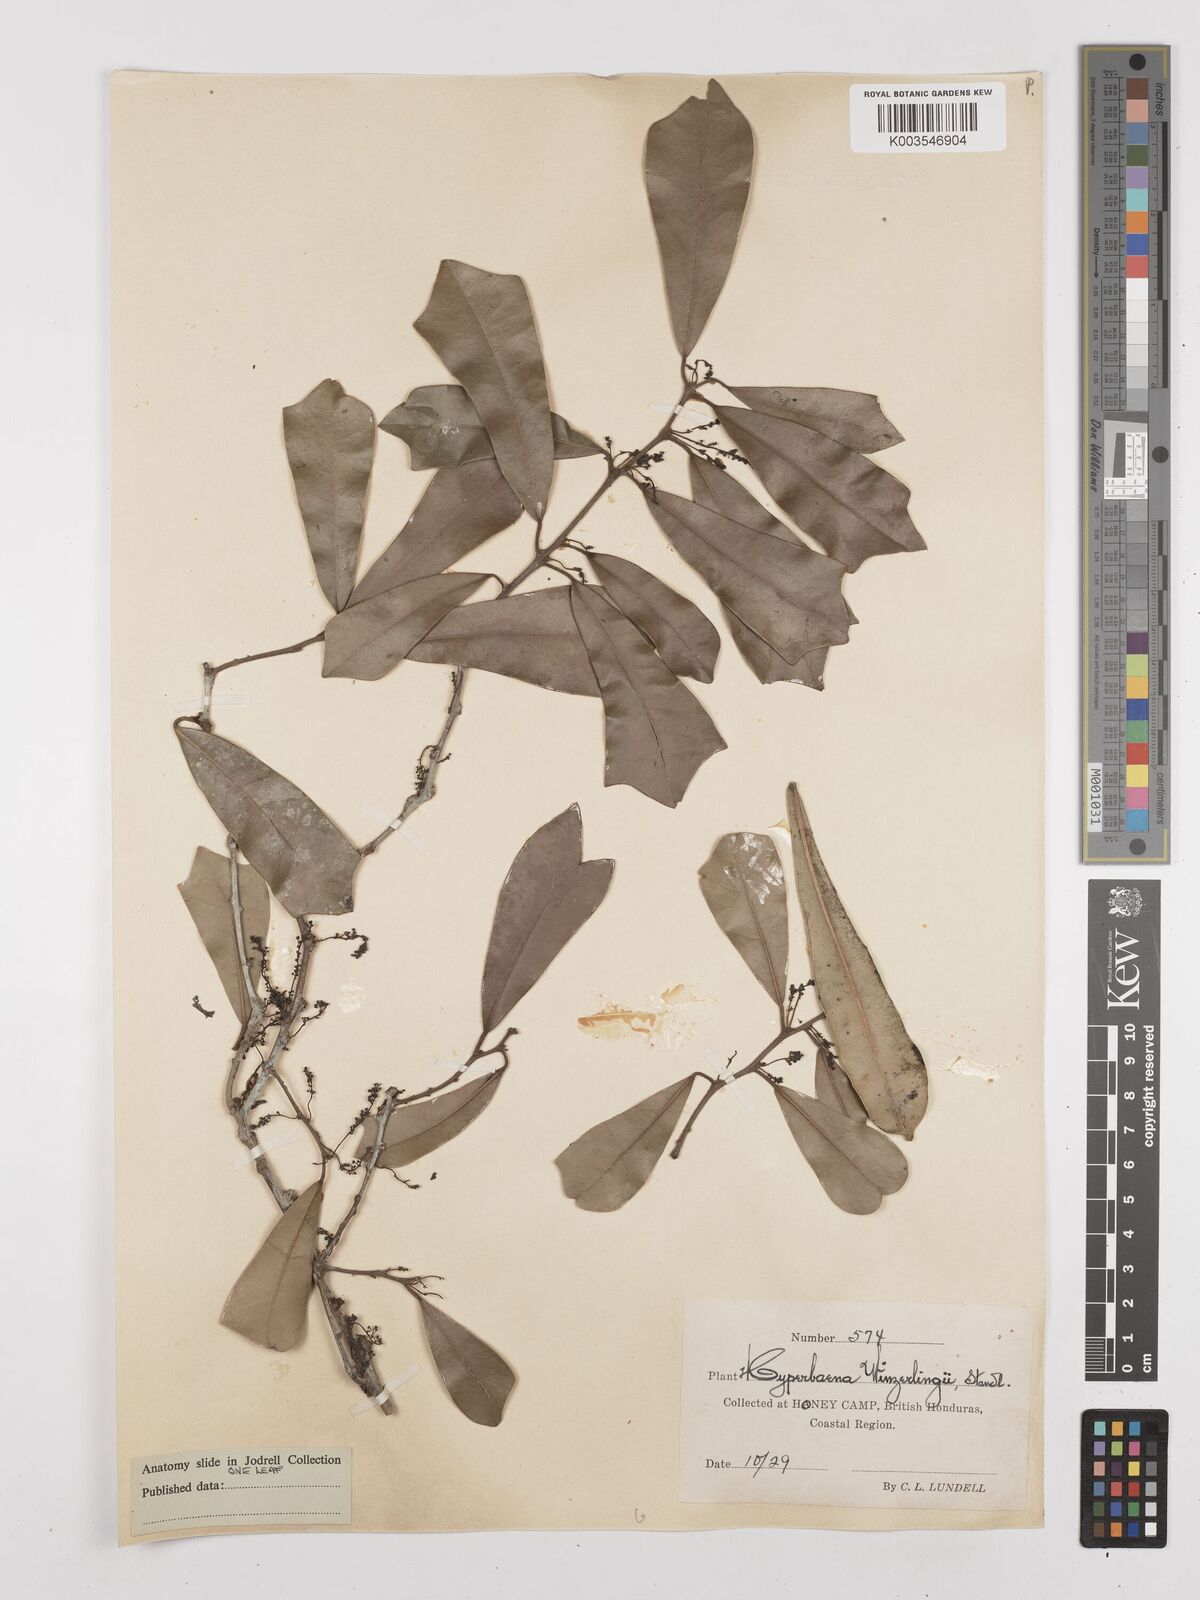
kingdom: Plantae
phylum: Tracheophyta
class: Magnoliopsida
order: Ranunculales
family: Menispermaceae
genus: Hyperbaena
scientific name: Hyperbaena winzerlingii
